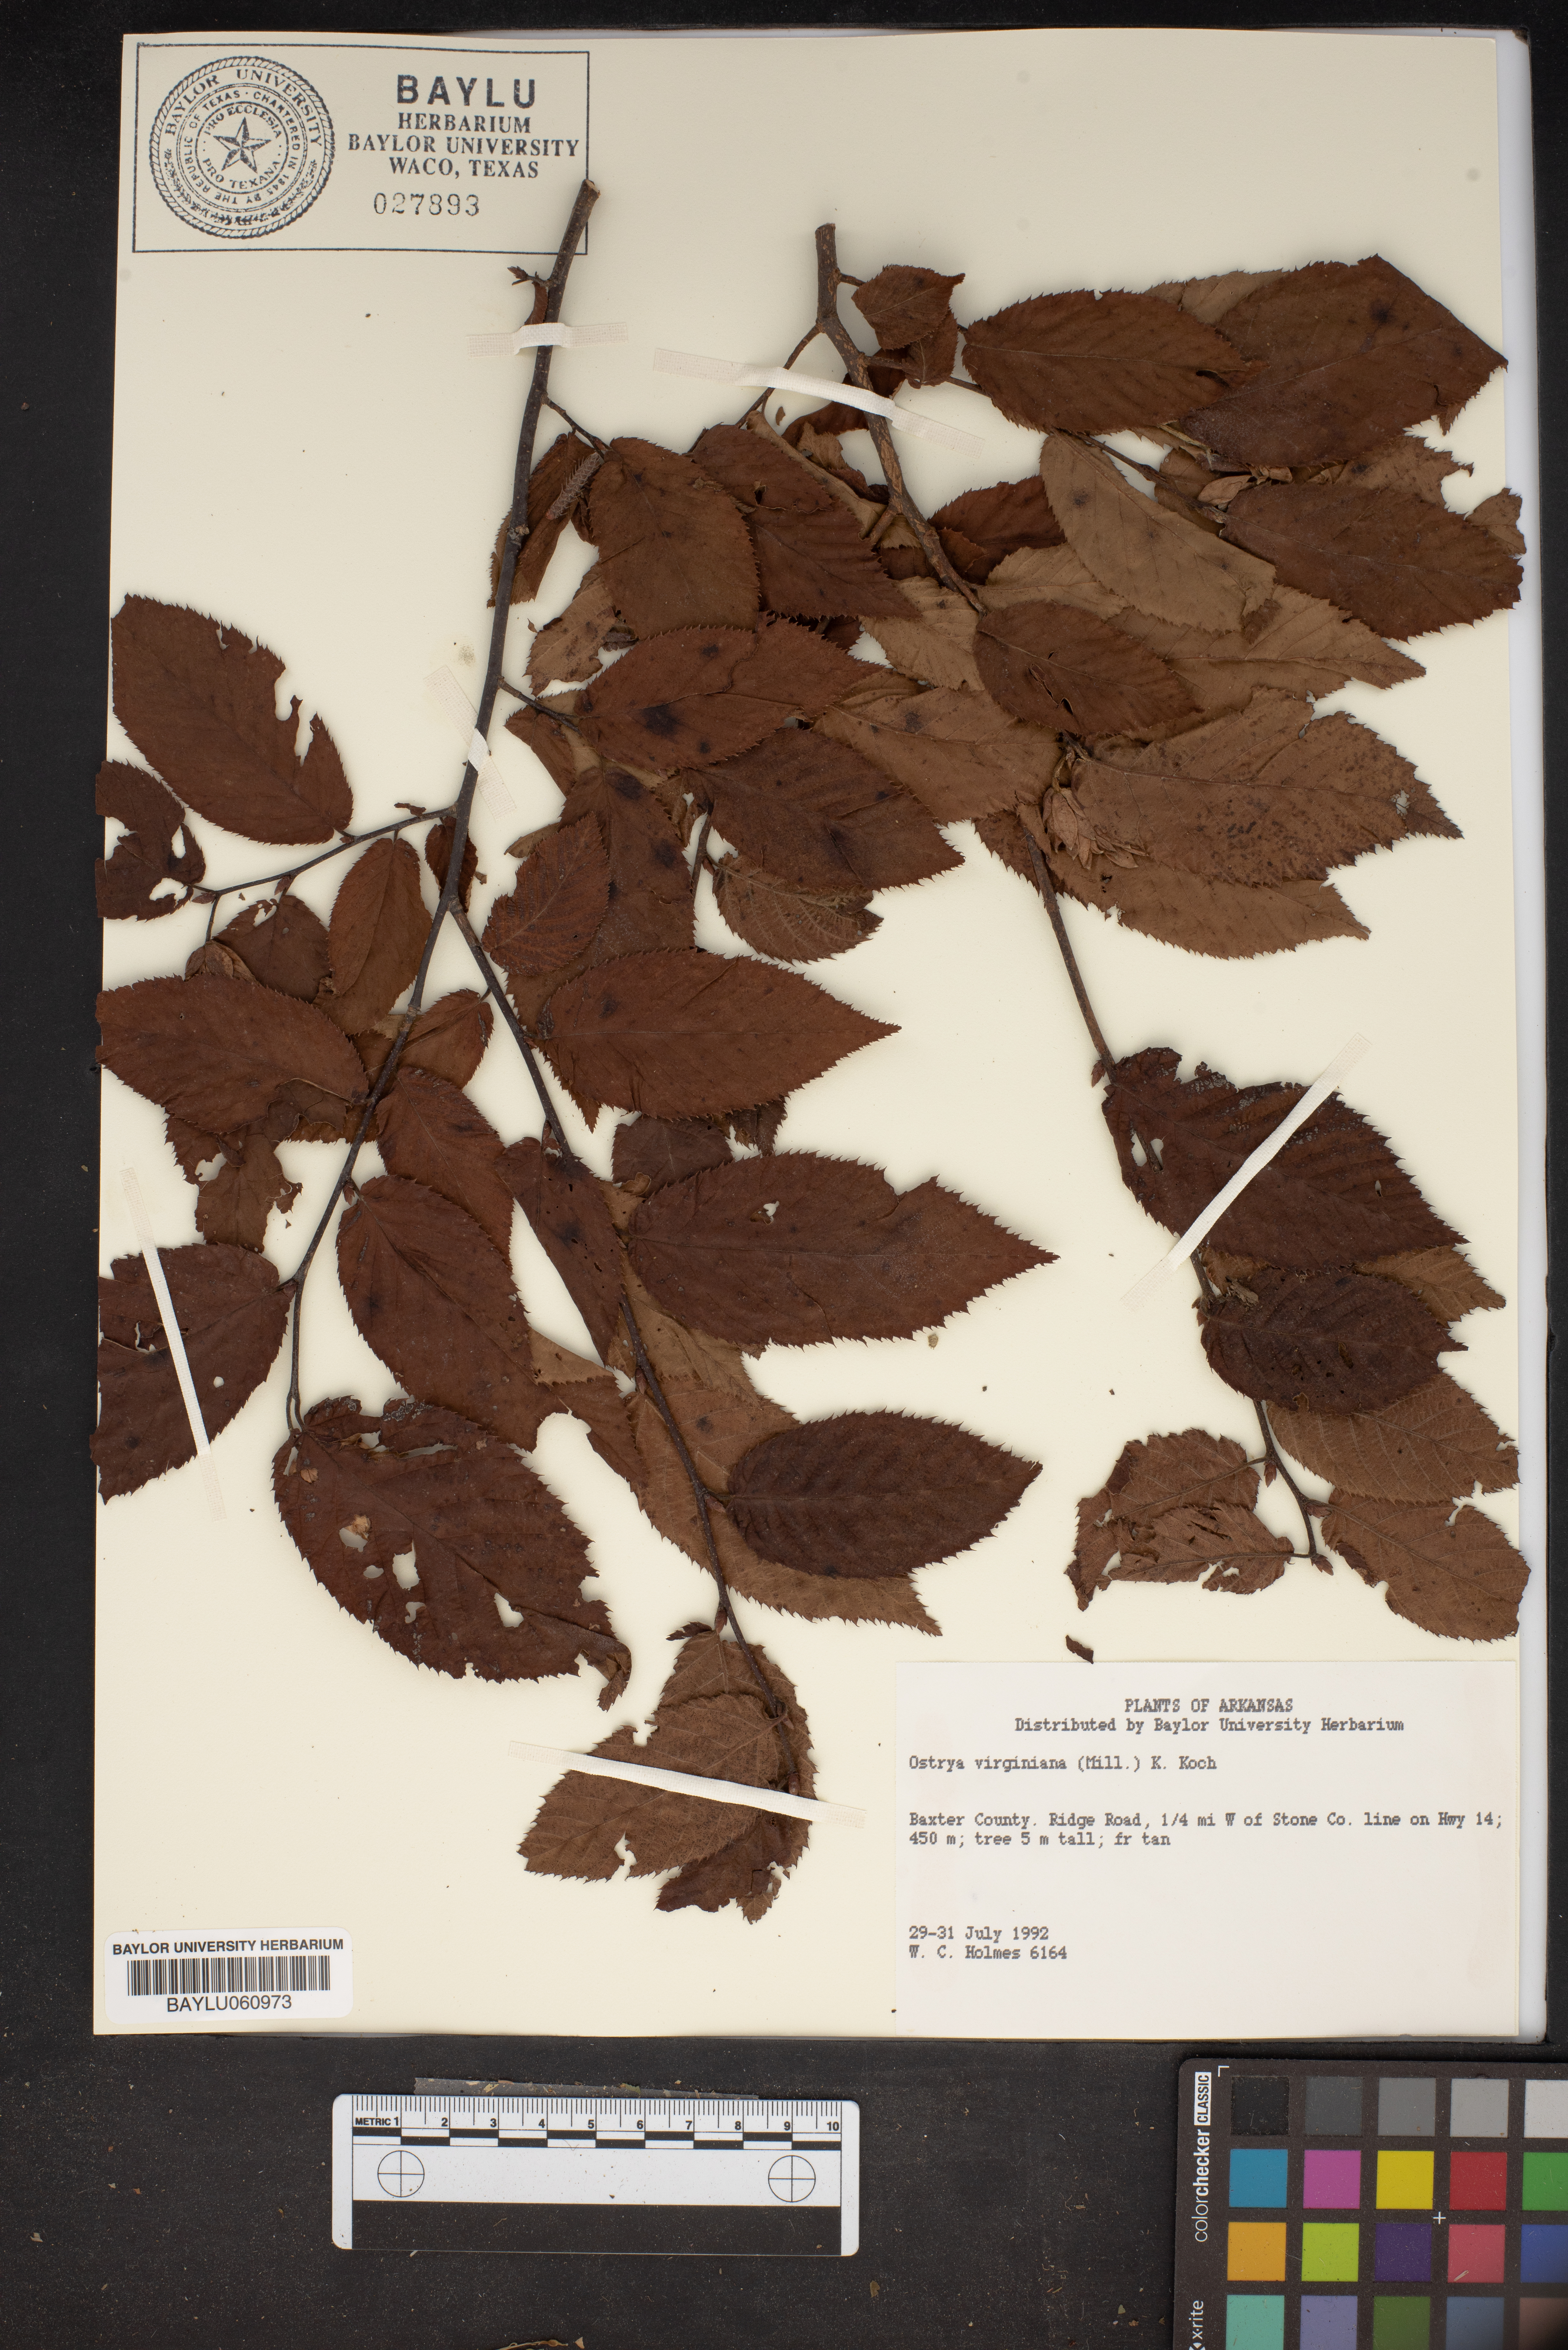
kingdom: Plantae
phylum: Tracheophyta
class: Magnoliopsida
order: Fagales
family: Betulaceae
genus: Ostrya
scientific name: Ostrya virginiana
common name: Ironwood
